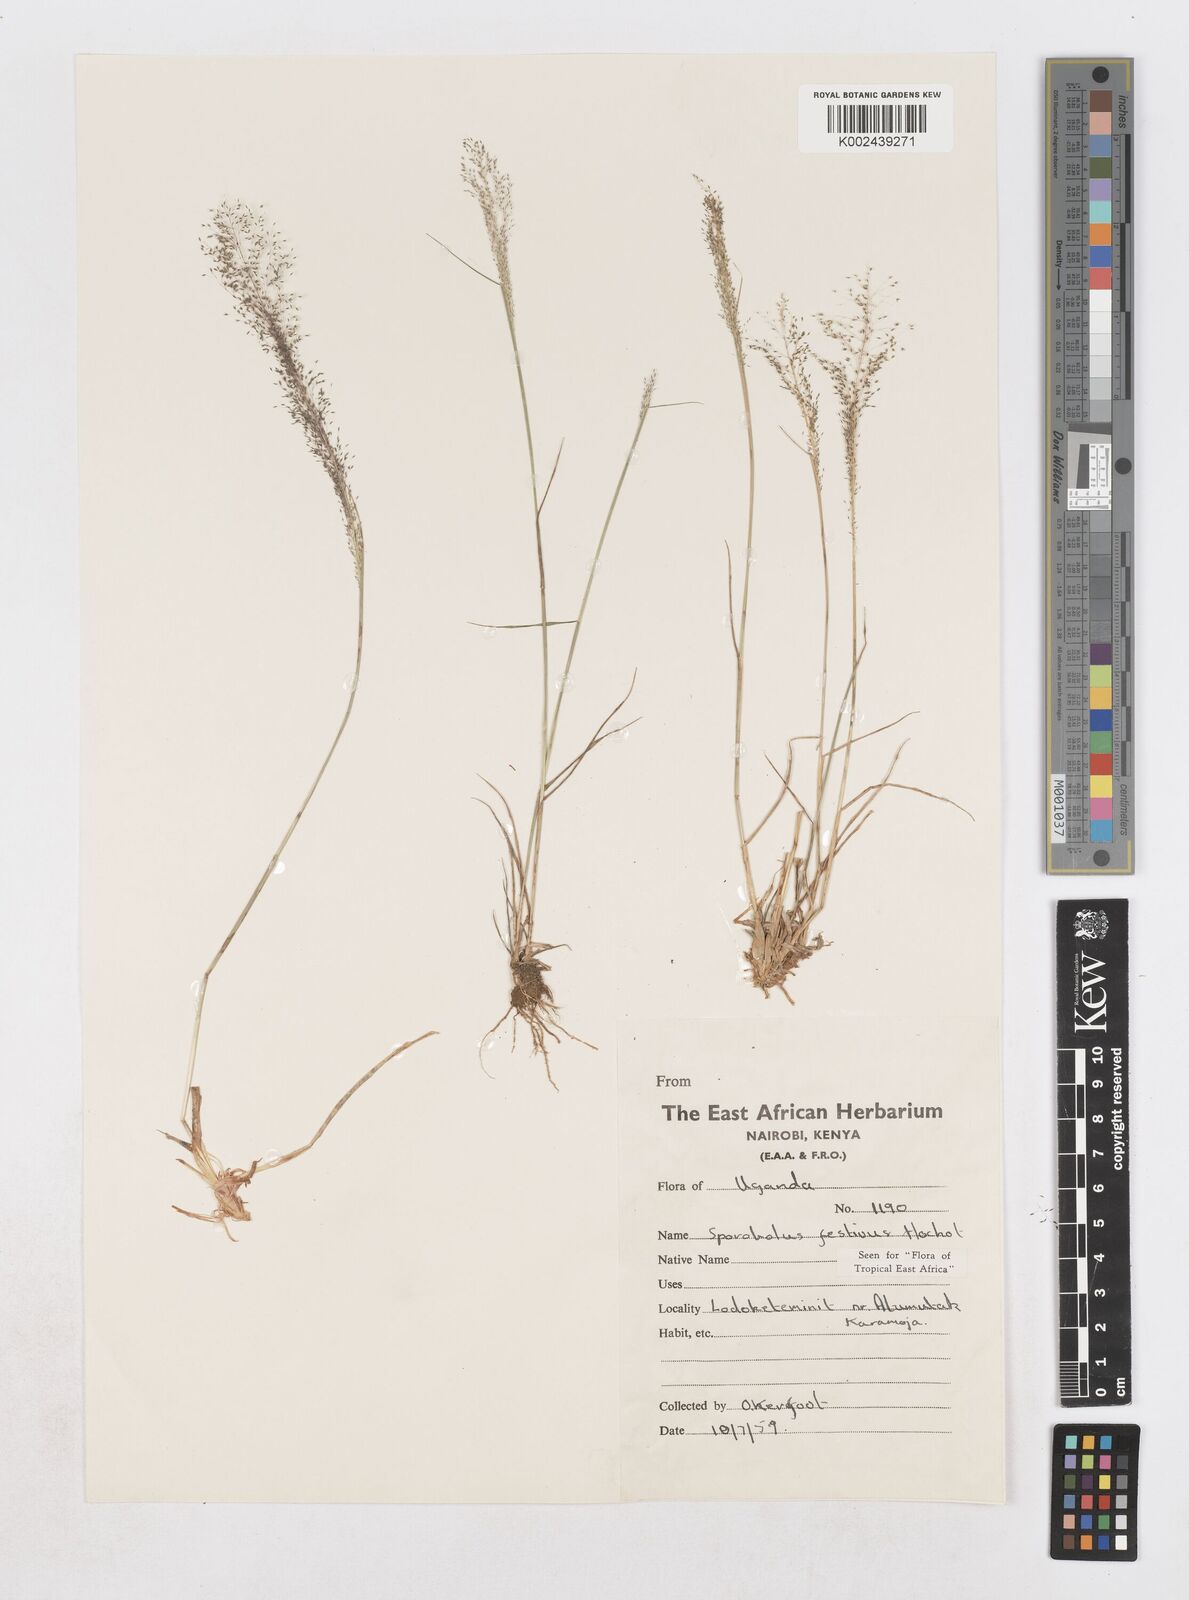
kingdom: Plantae
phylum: Tracheophyta
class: Liliopsida
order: Poales
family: Poaceae
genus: Sporobolus
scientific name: Sporobolus festivus
